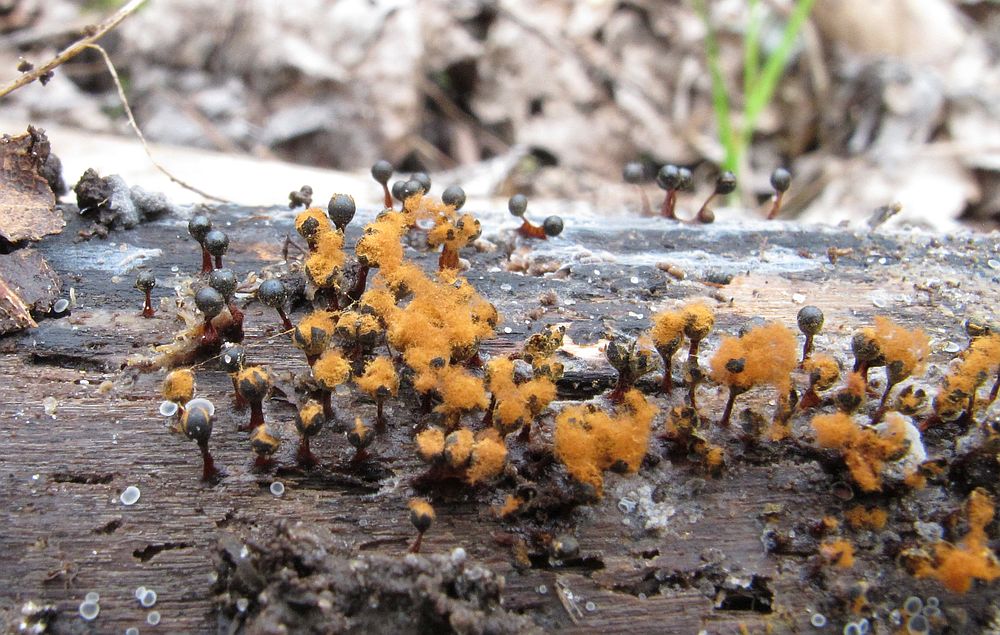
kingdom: Protozoa
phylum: Mycetozoa
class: Myxomycetes
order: Trichiales
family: Trichiaceae
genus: Metatrichia
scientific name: Metatrichia floriformis
